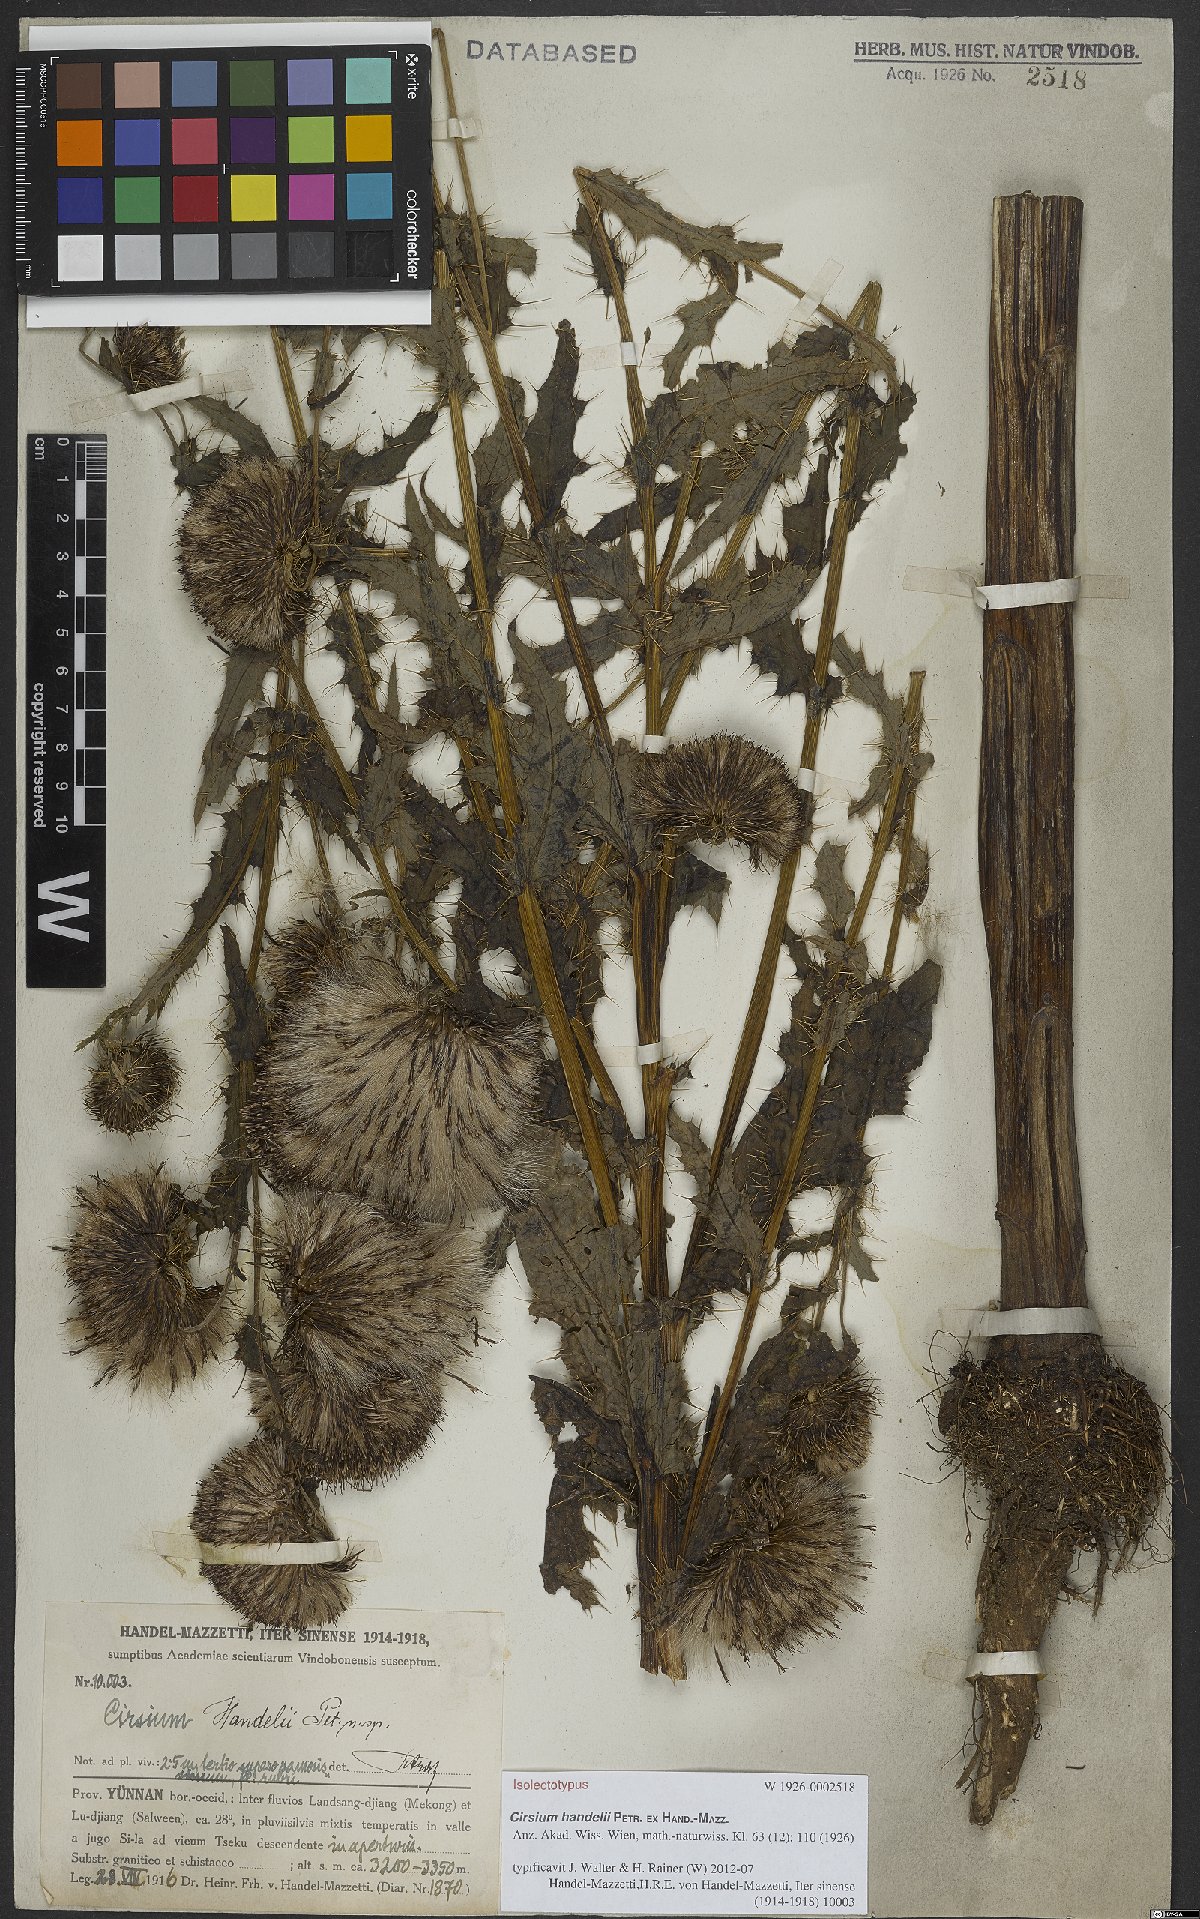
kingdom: Plantae
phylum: Tracheophyta
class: Magnoliopsida
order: Asterales
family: Asteraceae
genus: Cirsium
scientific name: Cirsium handelii
